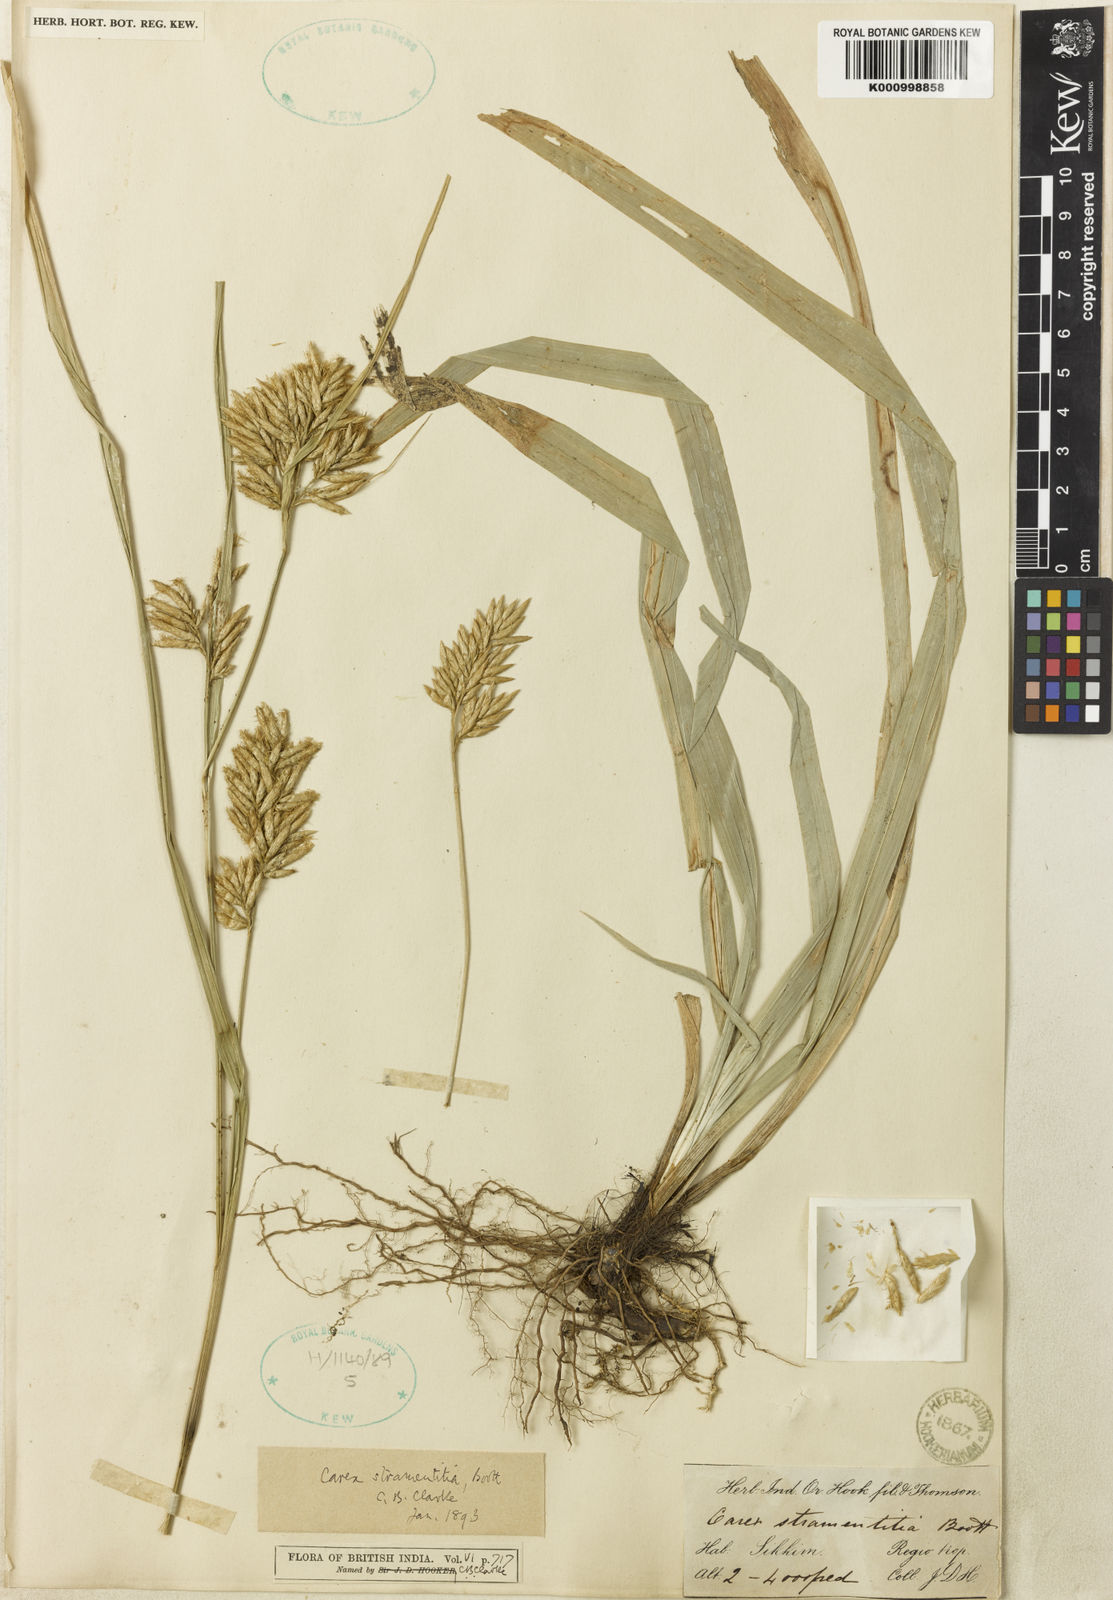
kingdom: Plantae
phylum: Tracheophyta
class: Liliopsida
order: Poales
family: Cyperaceae
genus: Carex
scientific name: Carex stramentitia
